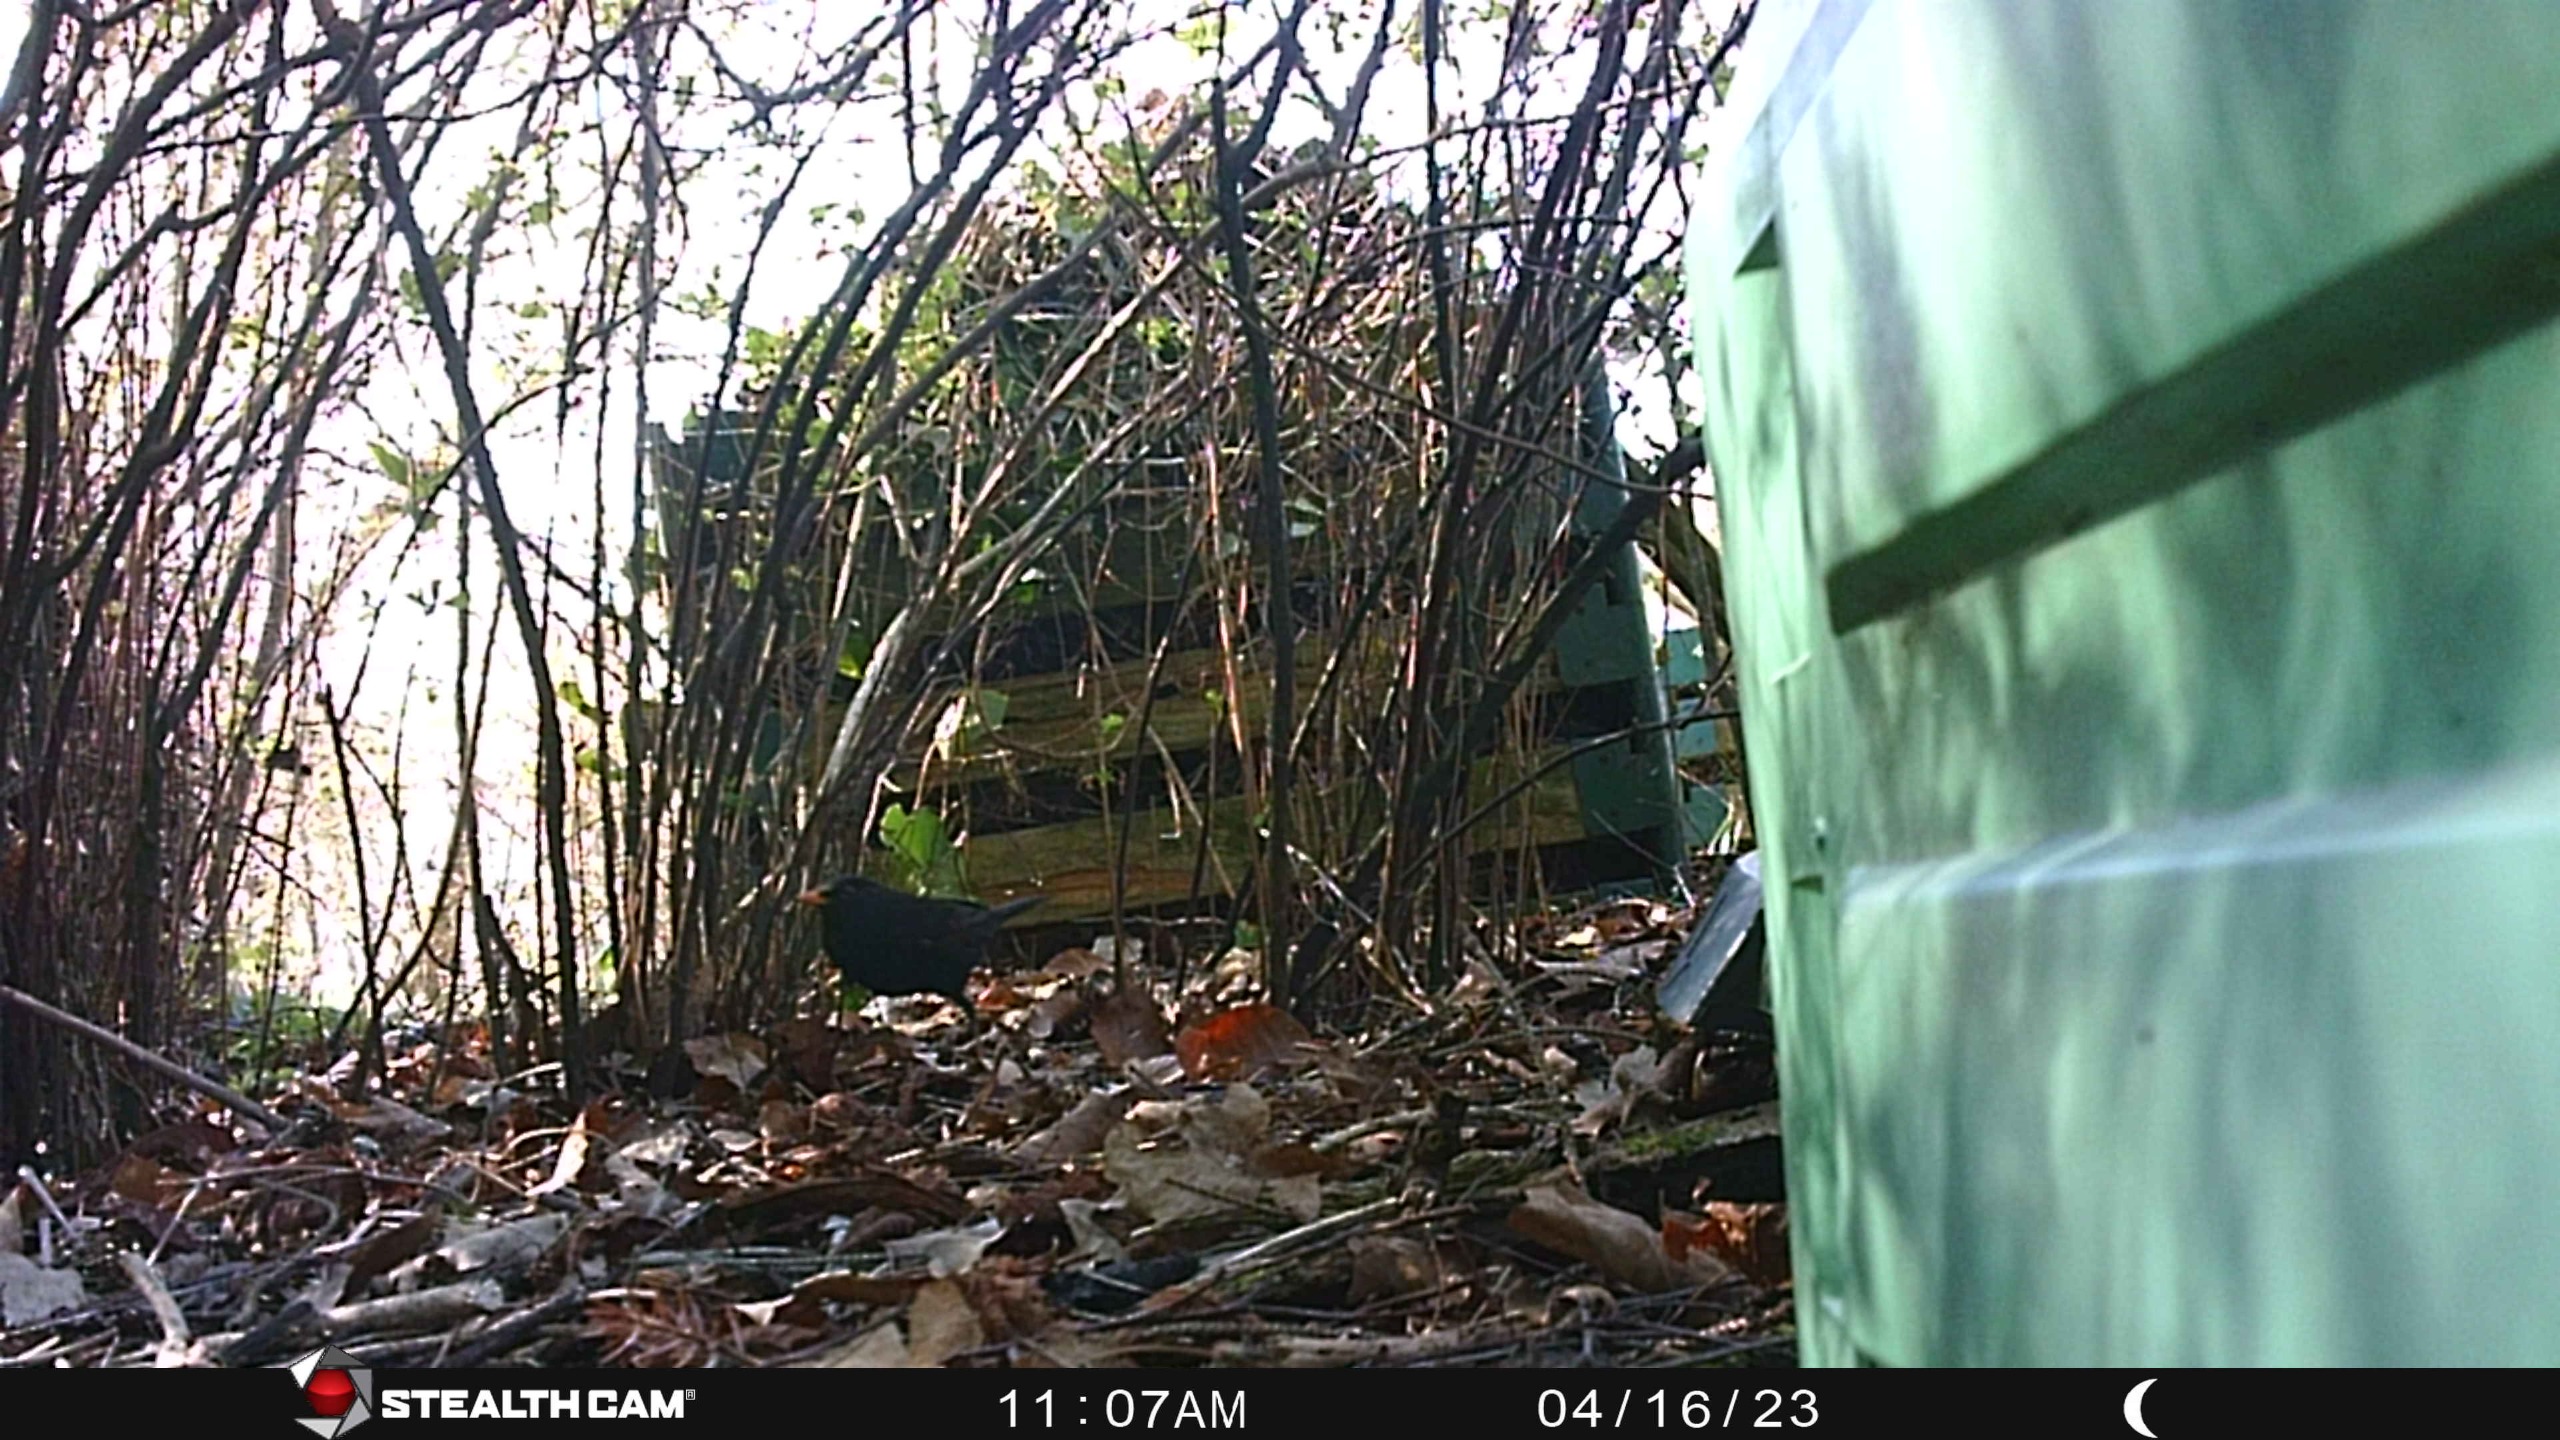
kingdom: Animalia
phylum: Chordata
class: Aves
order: Passeriformes
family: Turdidae
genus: Turdus
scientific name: Turdus merula
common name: Solsort
